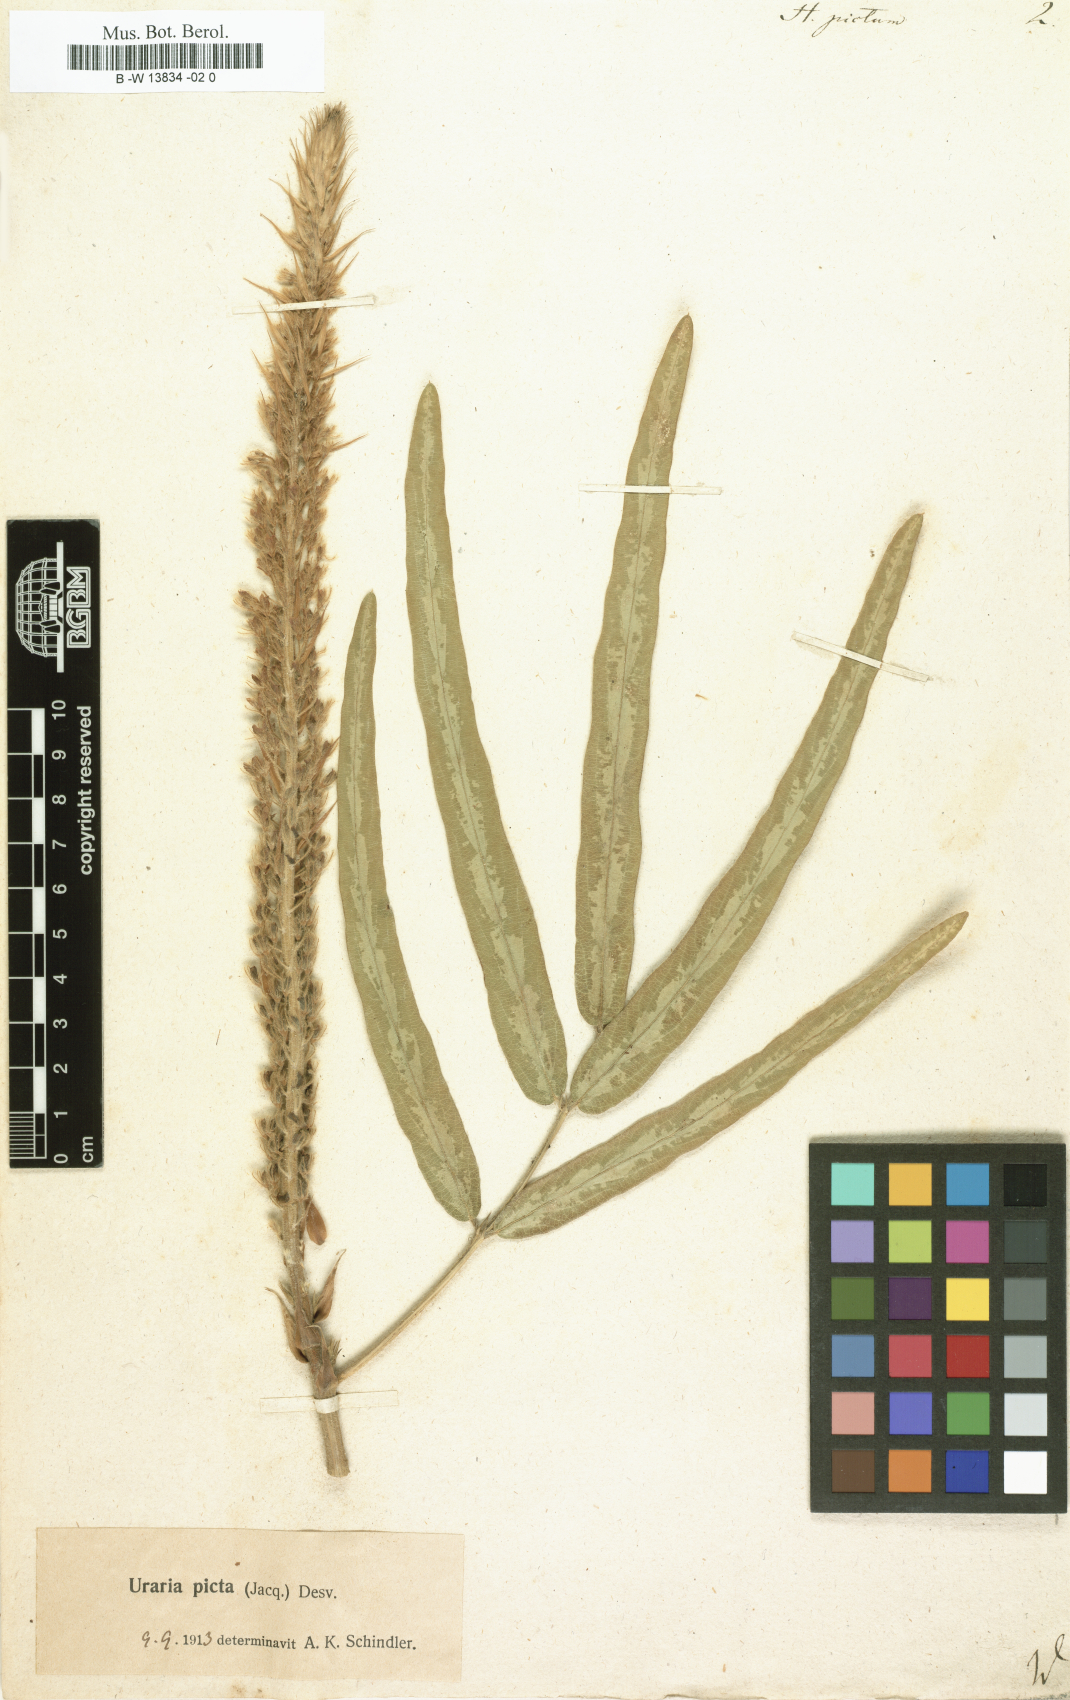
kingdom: Plantae
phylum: Tracheophyta
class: Magnoliopsida
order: Fabales
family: Fabaceae
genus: Uraria
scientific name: Uraria picta
